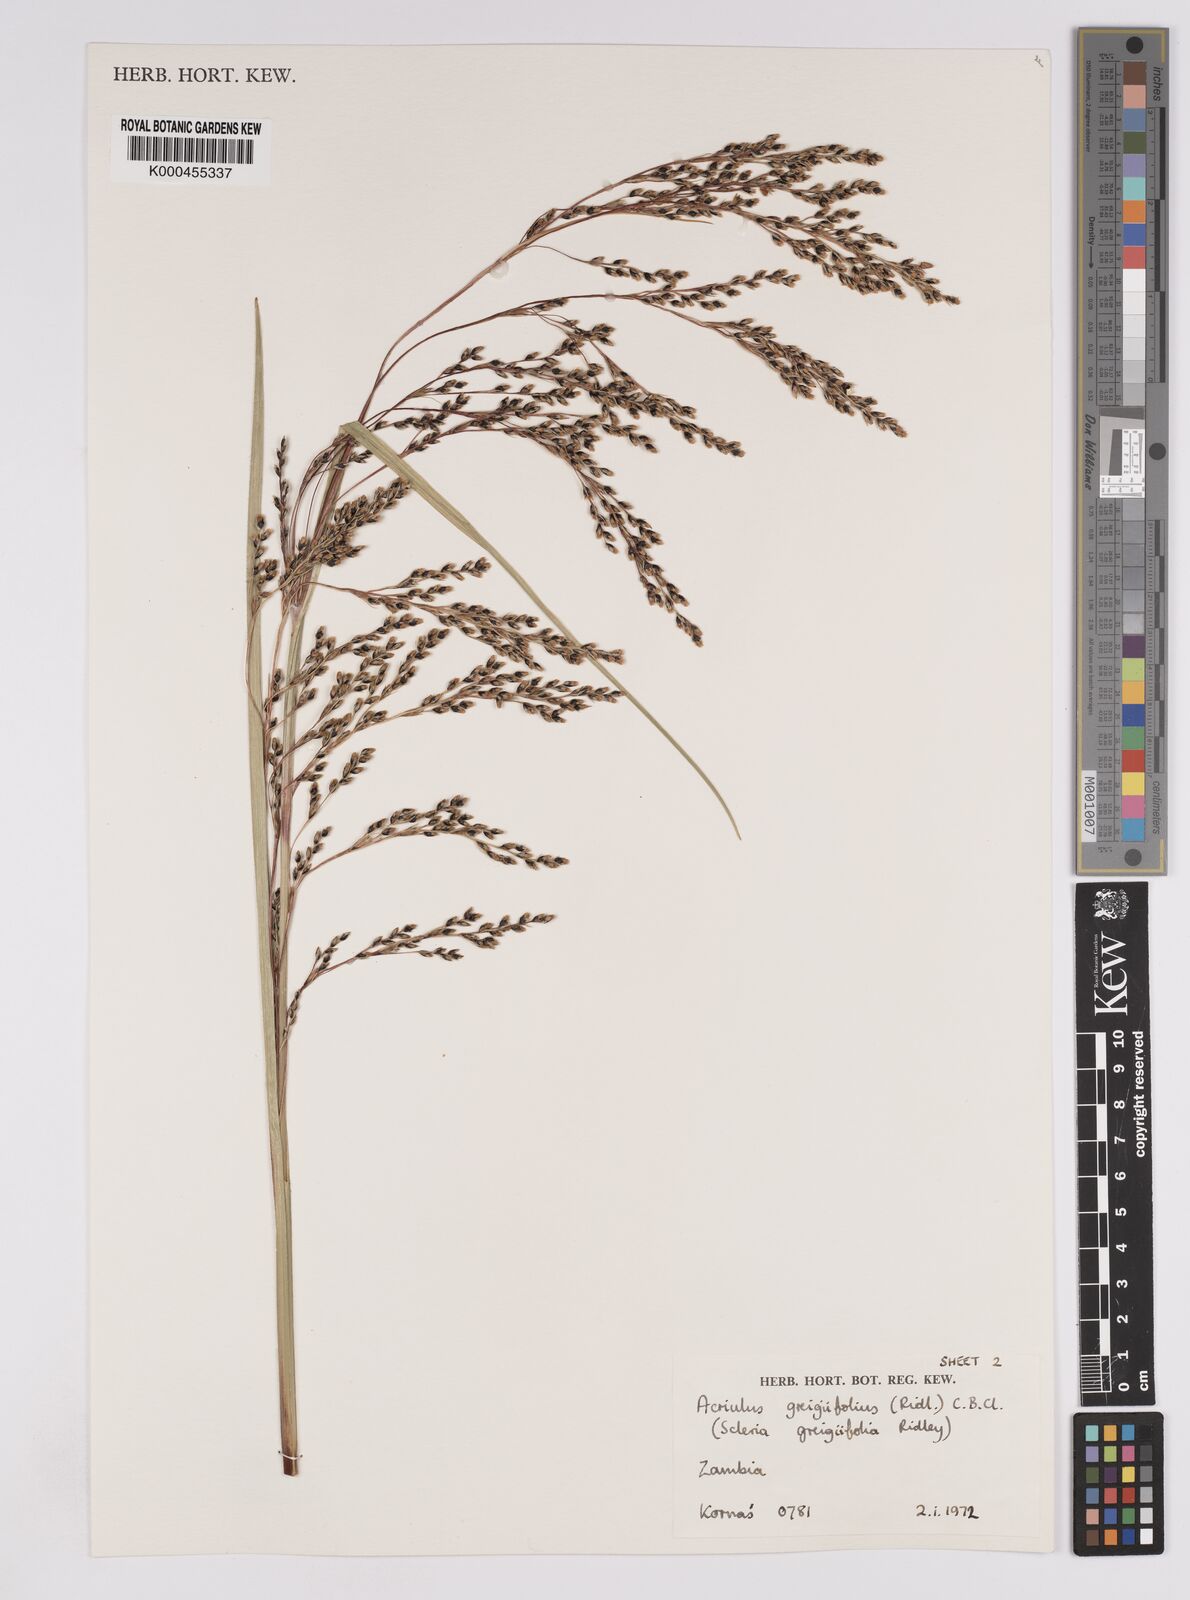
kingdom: Plantae
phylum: Tracheophyta
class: Liliopsida
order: Poales
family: Cyperaceae
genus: Scleria
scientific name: Scleria greigiifolia
